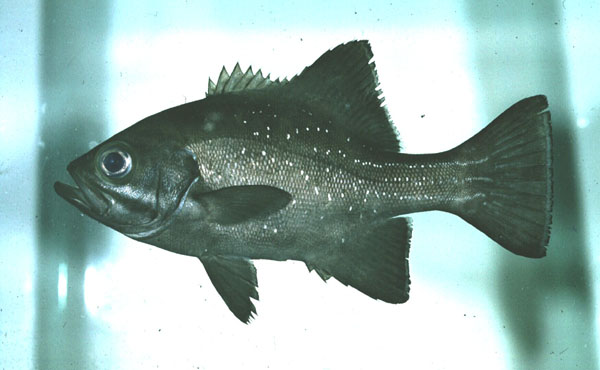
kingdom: Animalia
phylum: Chordata
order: Perciformes
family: Dinopercidae
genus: Dinoperca
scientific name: Dinoperca petersi
